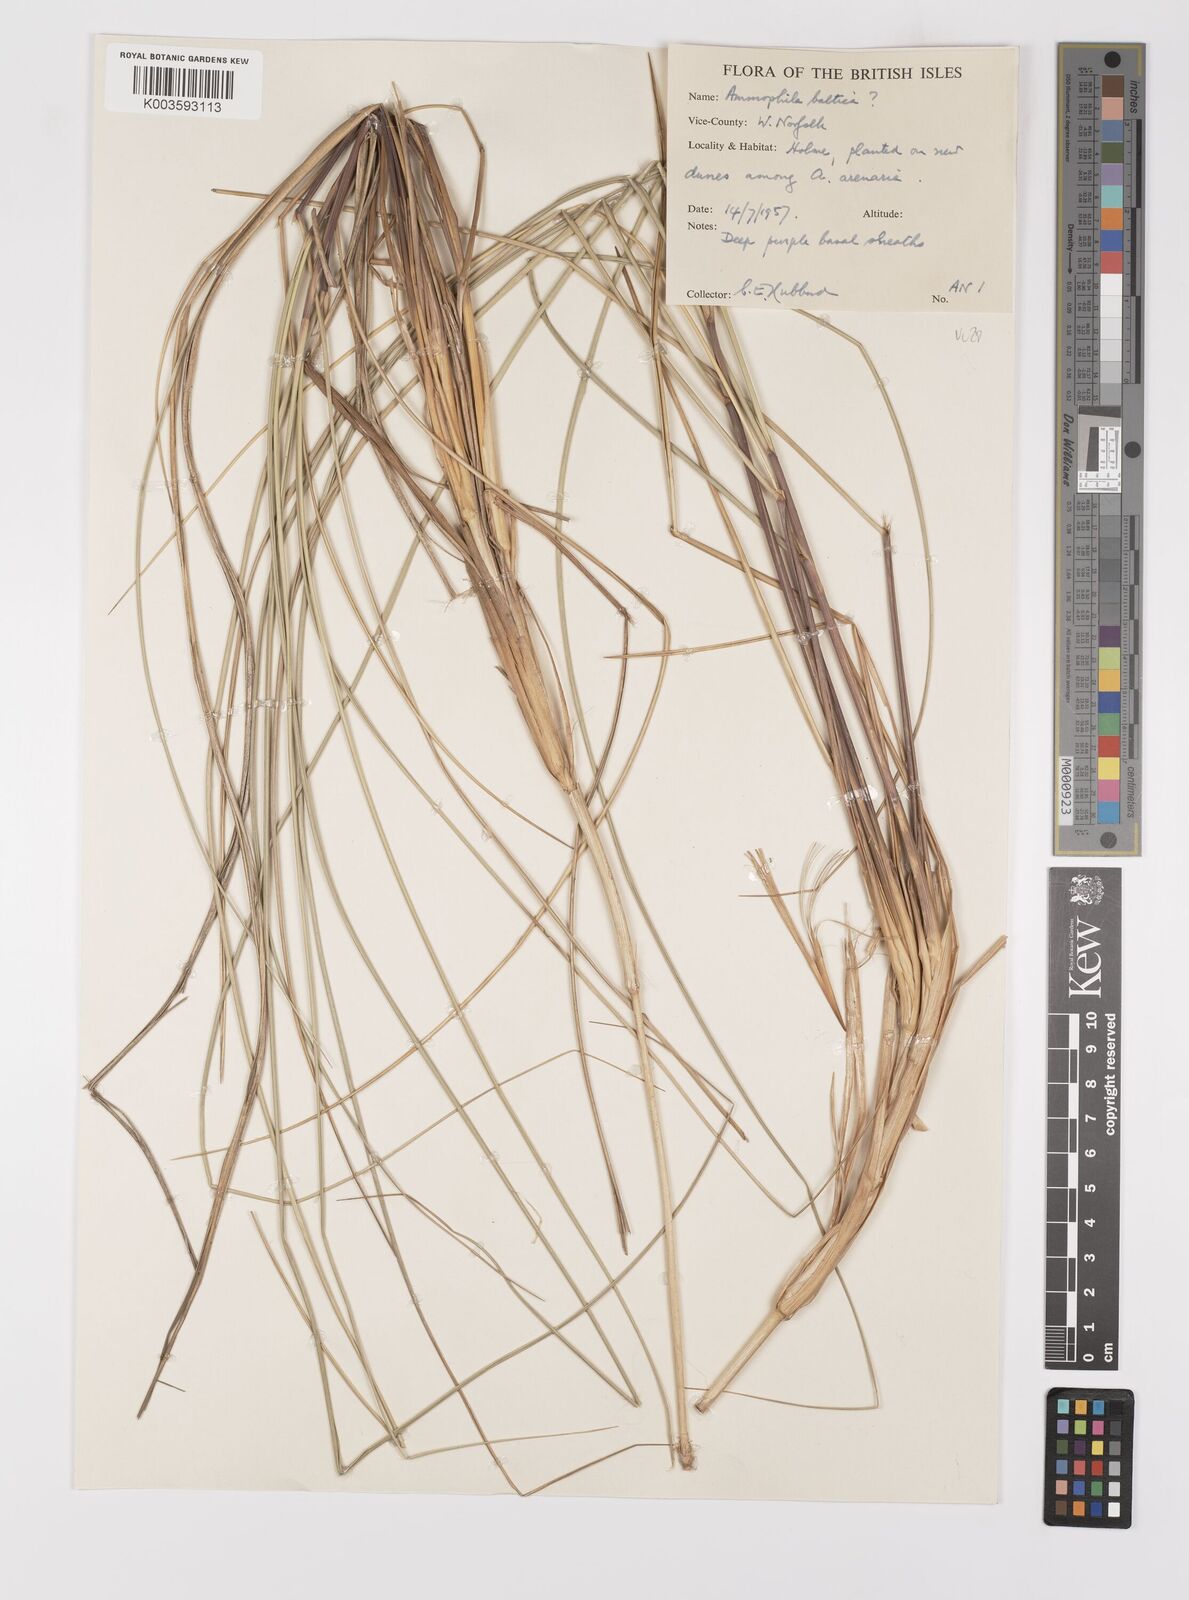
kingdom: Plantae
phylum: Tracheophyta
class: Liliopsida
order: Poales
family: Poaceae
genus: Calamagrostis
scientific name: Calamagrostis baltica
